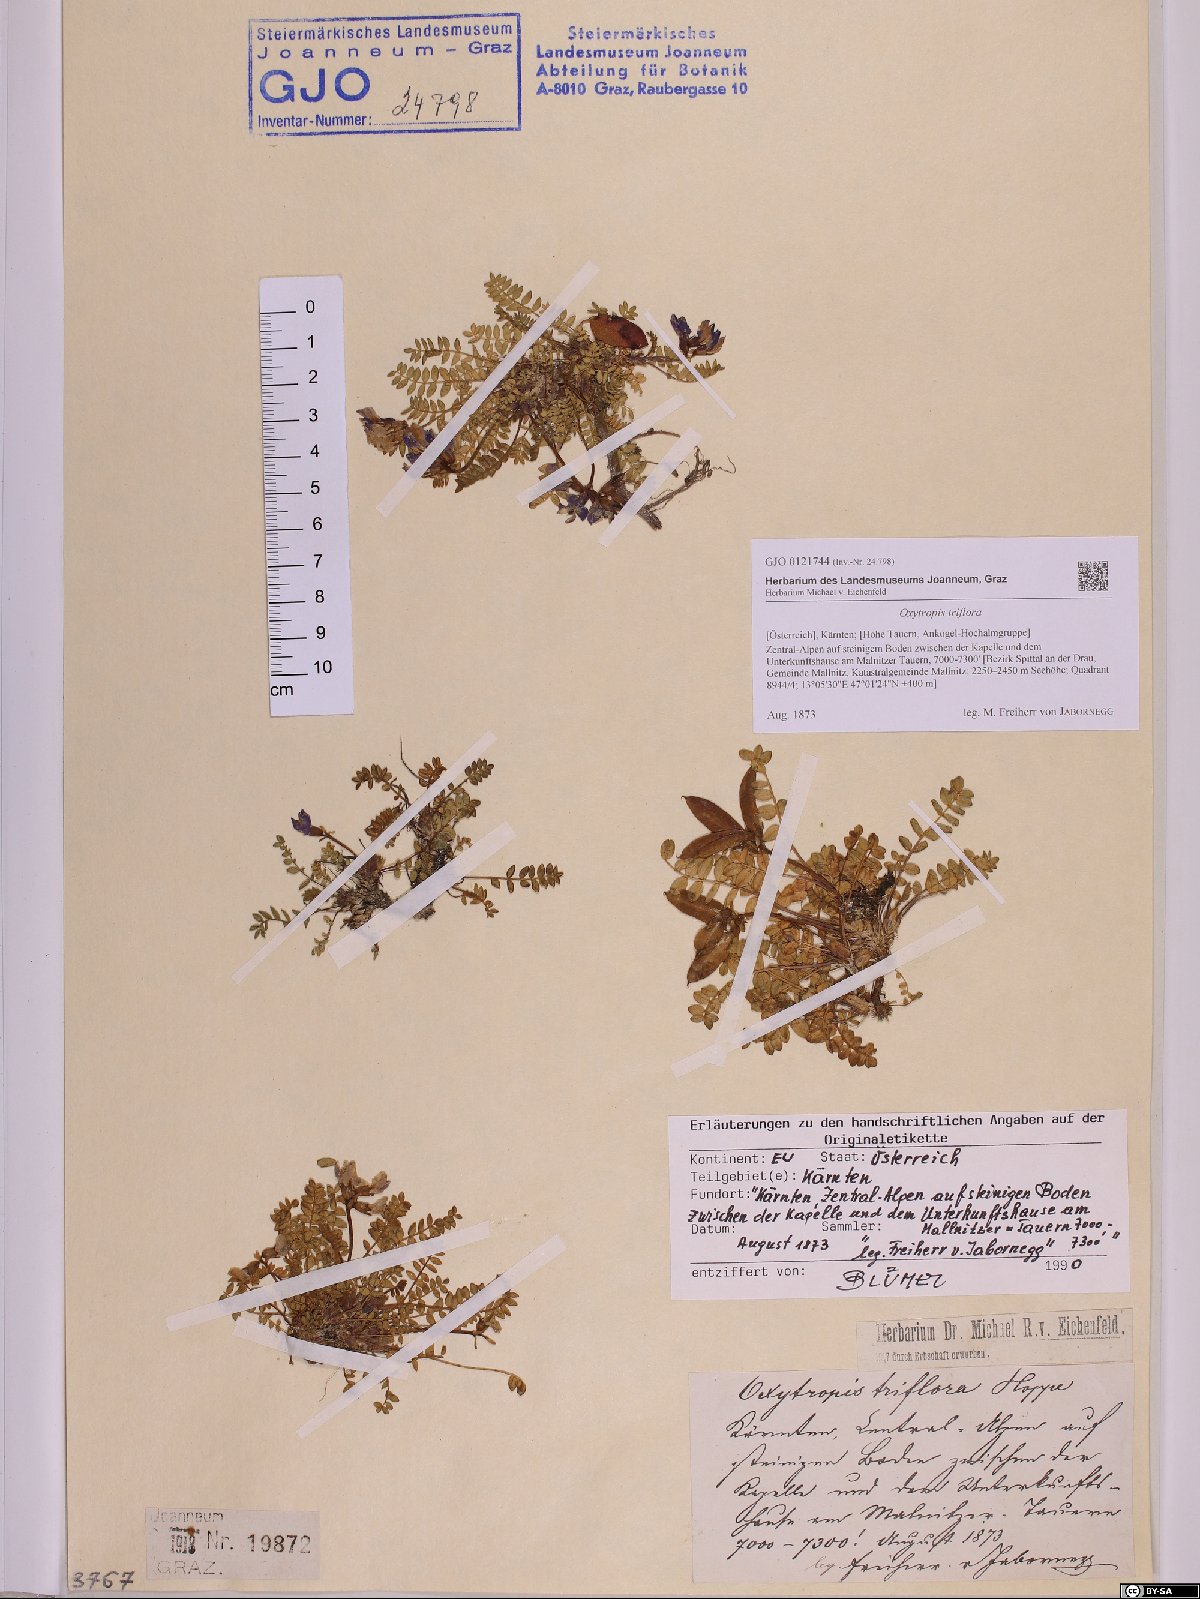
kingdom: Plantae
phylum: Tracheophyta
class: Magnoliopsida
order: Fabales
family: Fabaceae
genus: Oxytropis
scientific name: Oxytropis triflora
